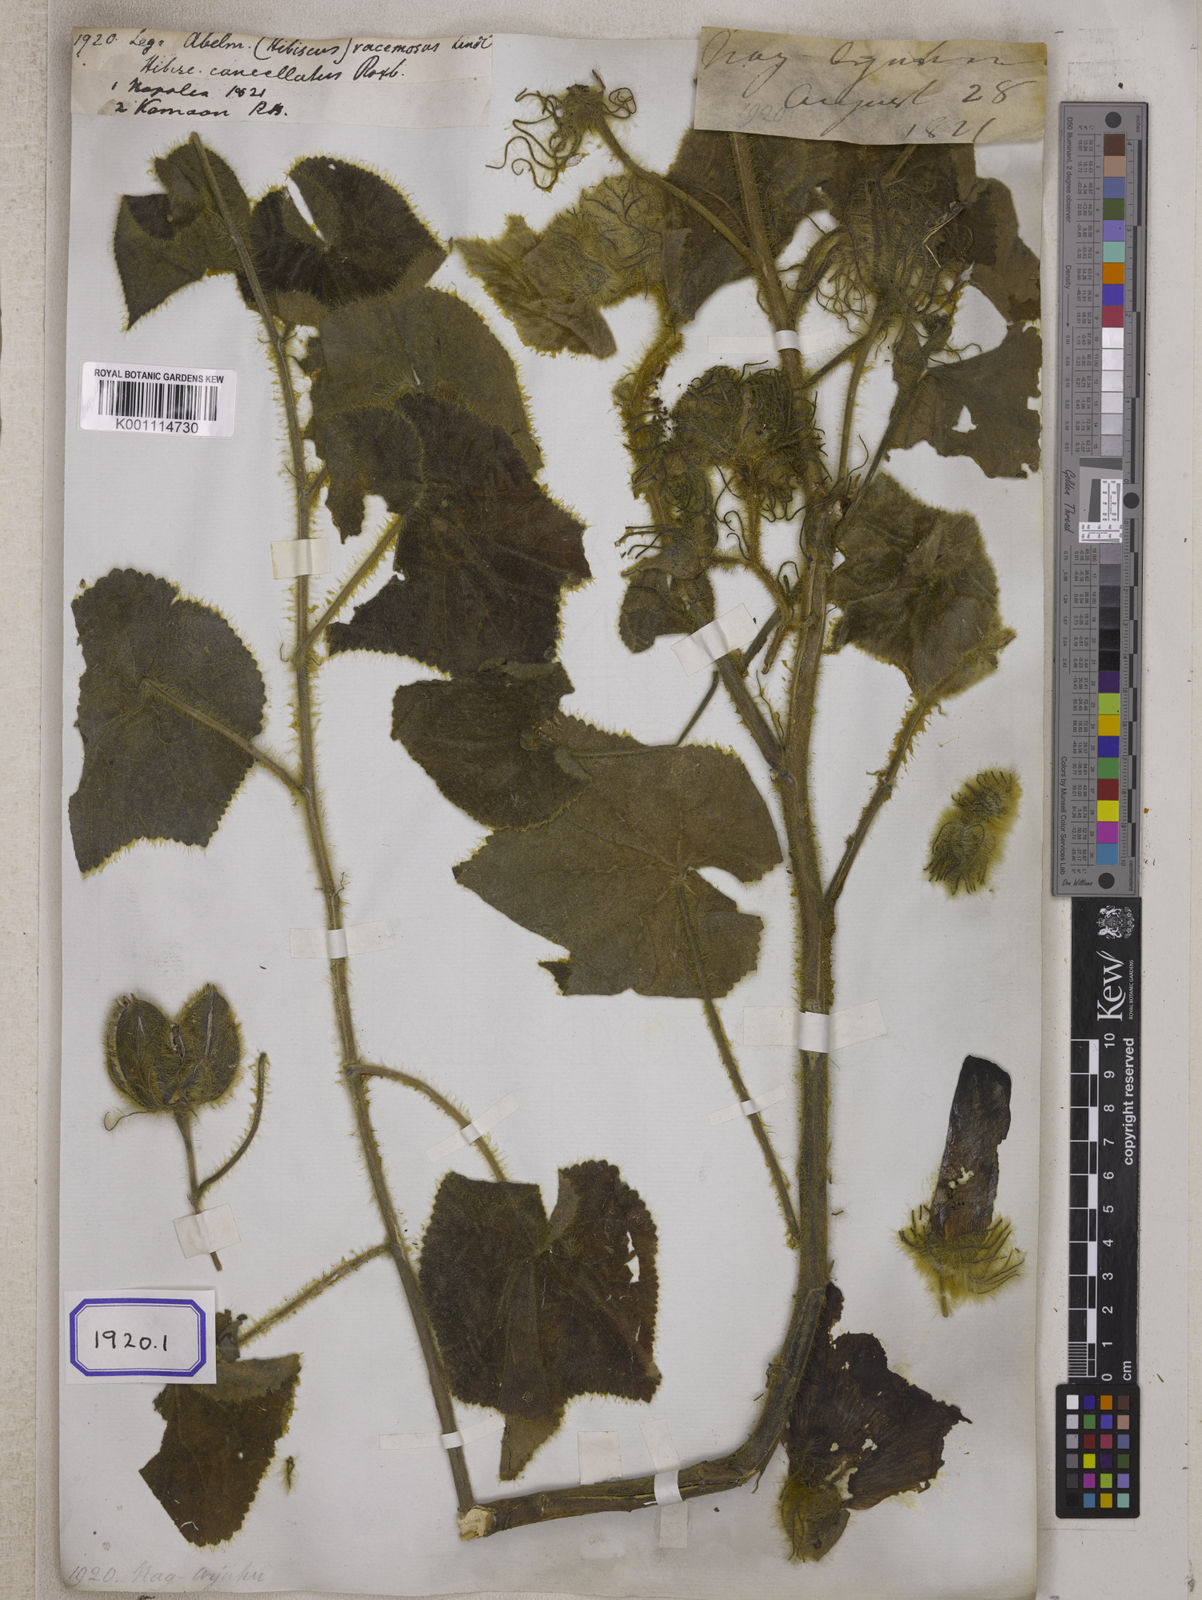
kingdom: Plantae
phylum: Tracheophyta
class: Magnoliopsida
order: Malvales
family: Malvaceae
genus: Bamia
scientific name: Bamia
